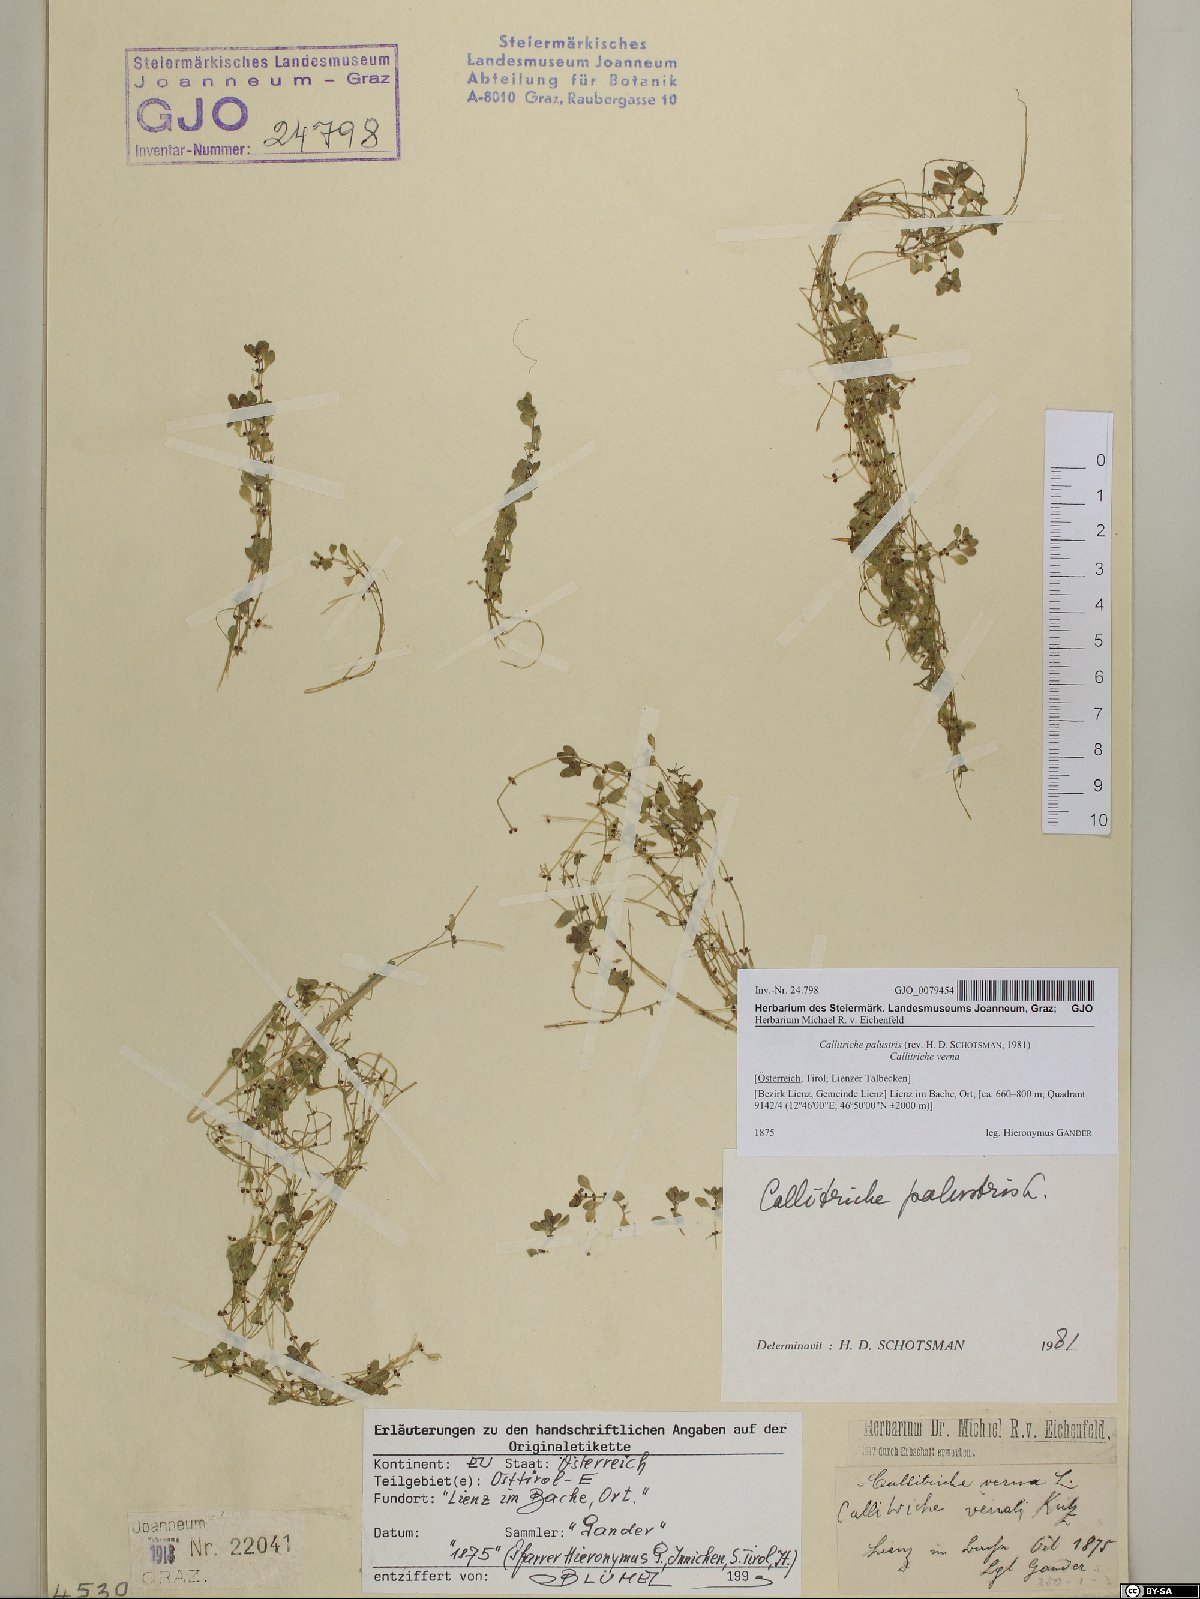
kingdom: Plantae
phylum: Tracheophyta
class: Magnoliopsida
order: Lamiales
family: Plantaginaceae
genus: Callitriche
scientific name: Callitriche palustris
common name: Spring water-starwort
